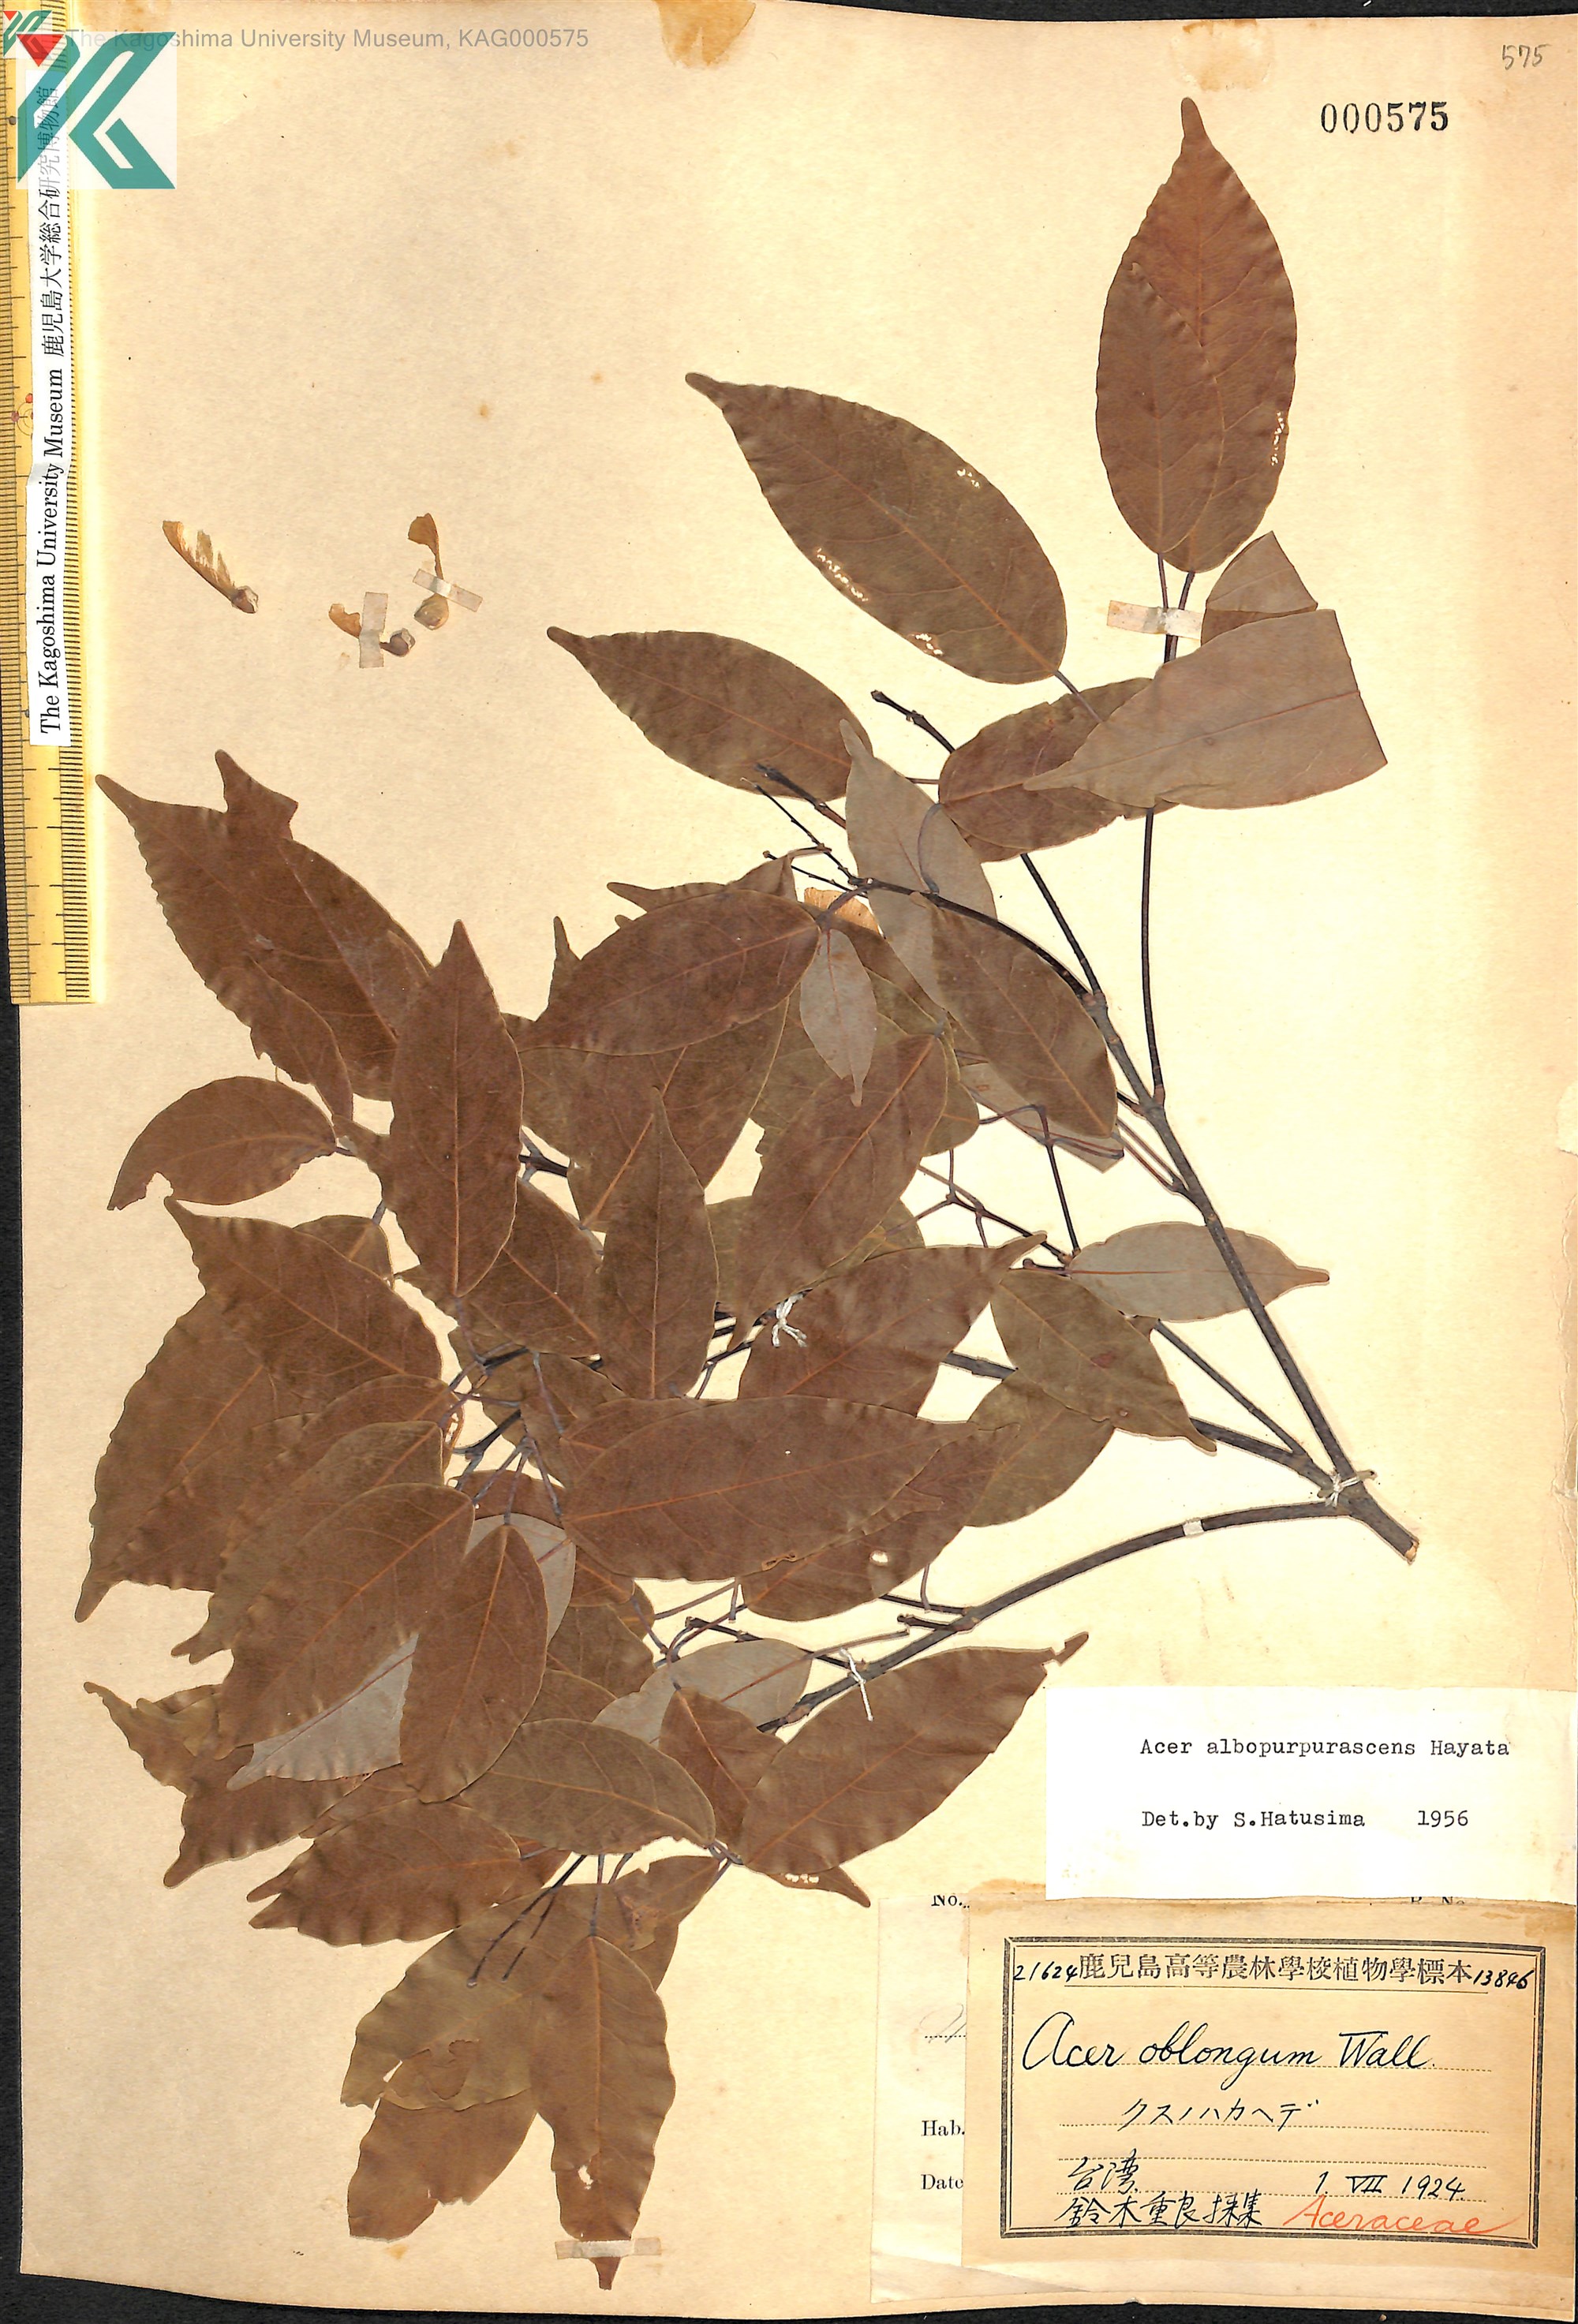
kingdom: Plantae
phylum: Tracheophyta
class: Magnoliopsida
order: Sapindales
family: Sapindaceae
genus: Acer
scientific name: Acer oblongum
